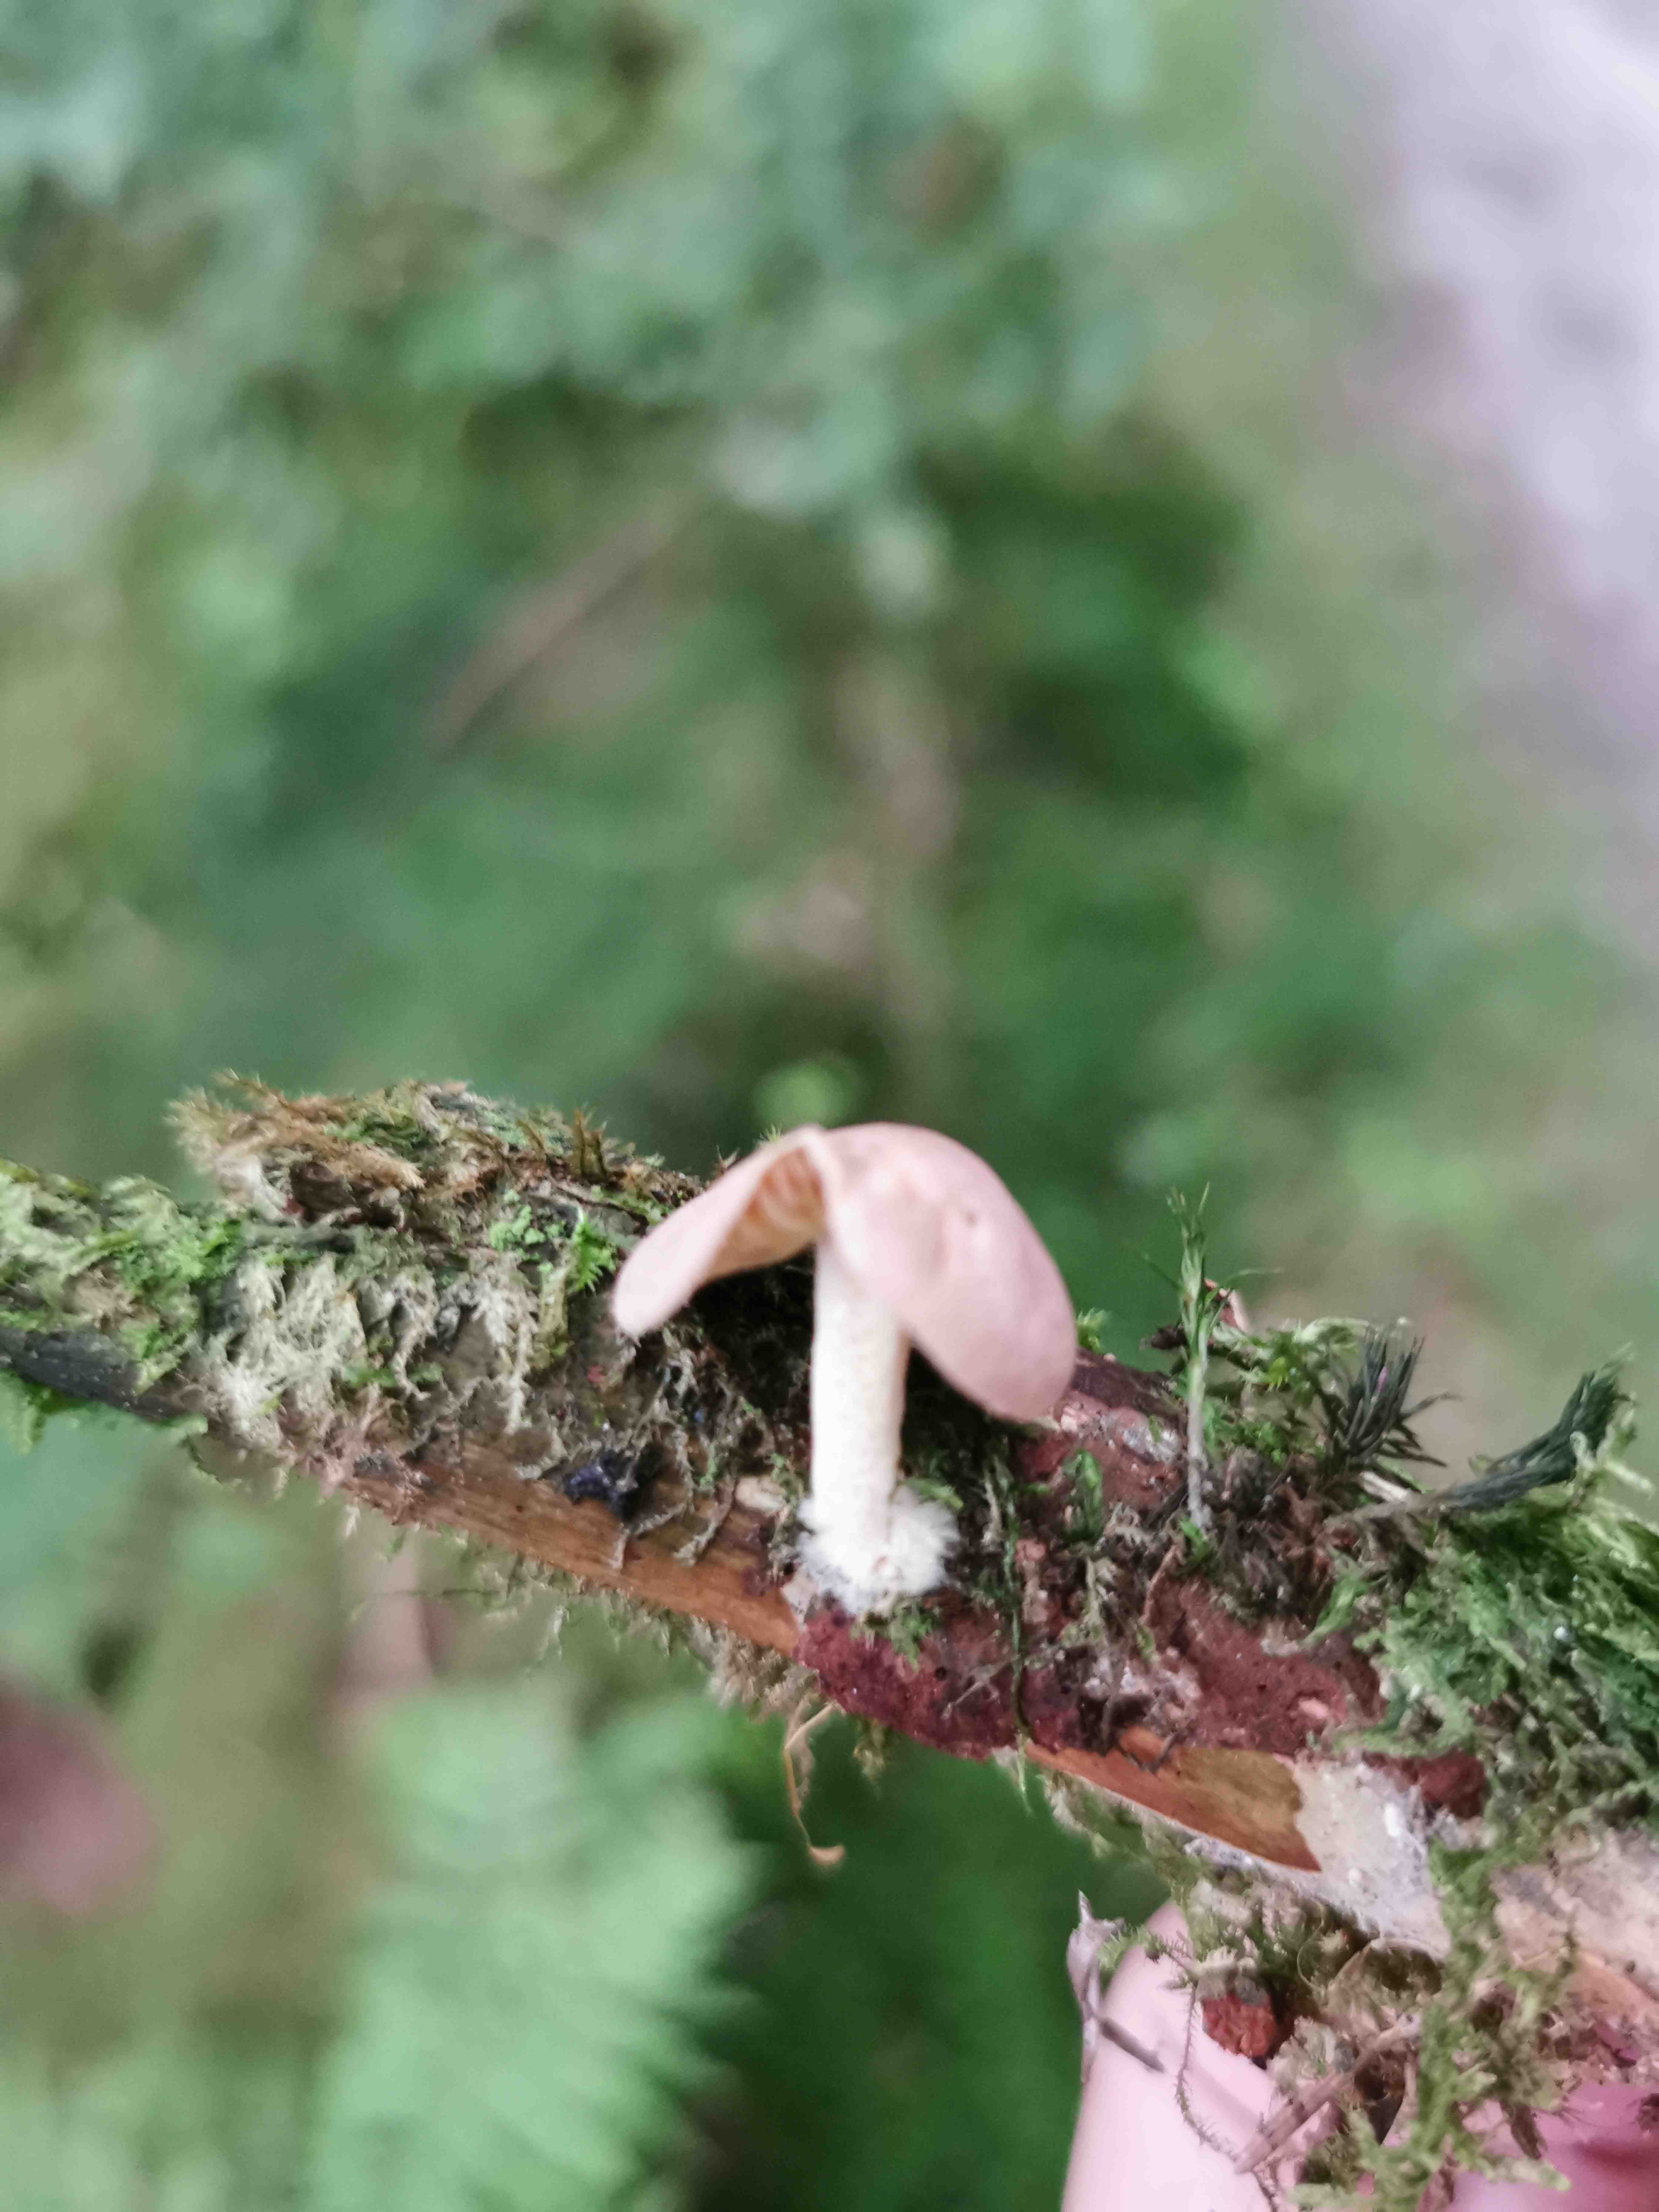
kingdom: Fungi
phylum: Basidiomycota
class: Agaricomycetes
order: Agaricales
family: Omphalotaceae
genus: Collybiopsis
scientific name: Collybiopsis peronata
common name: bestøvlet fladhat
